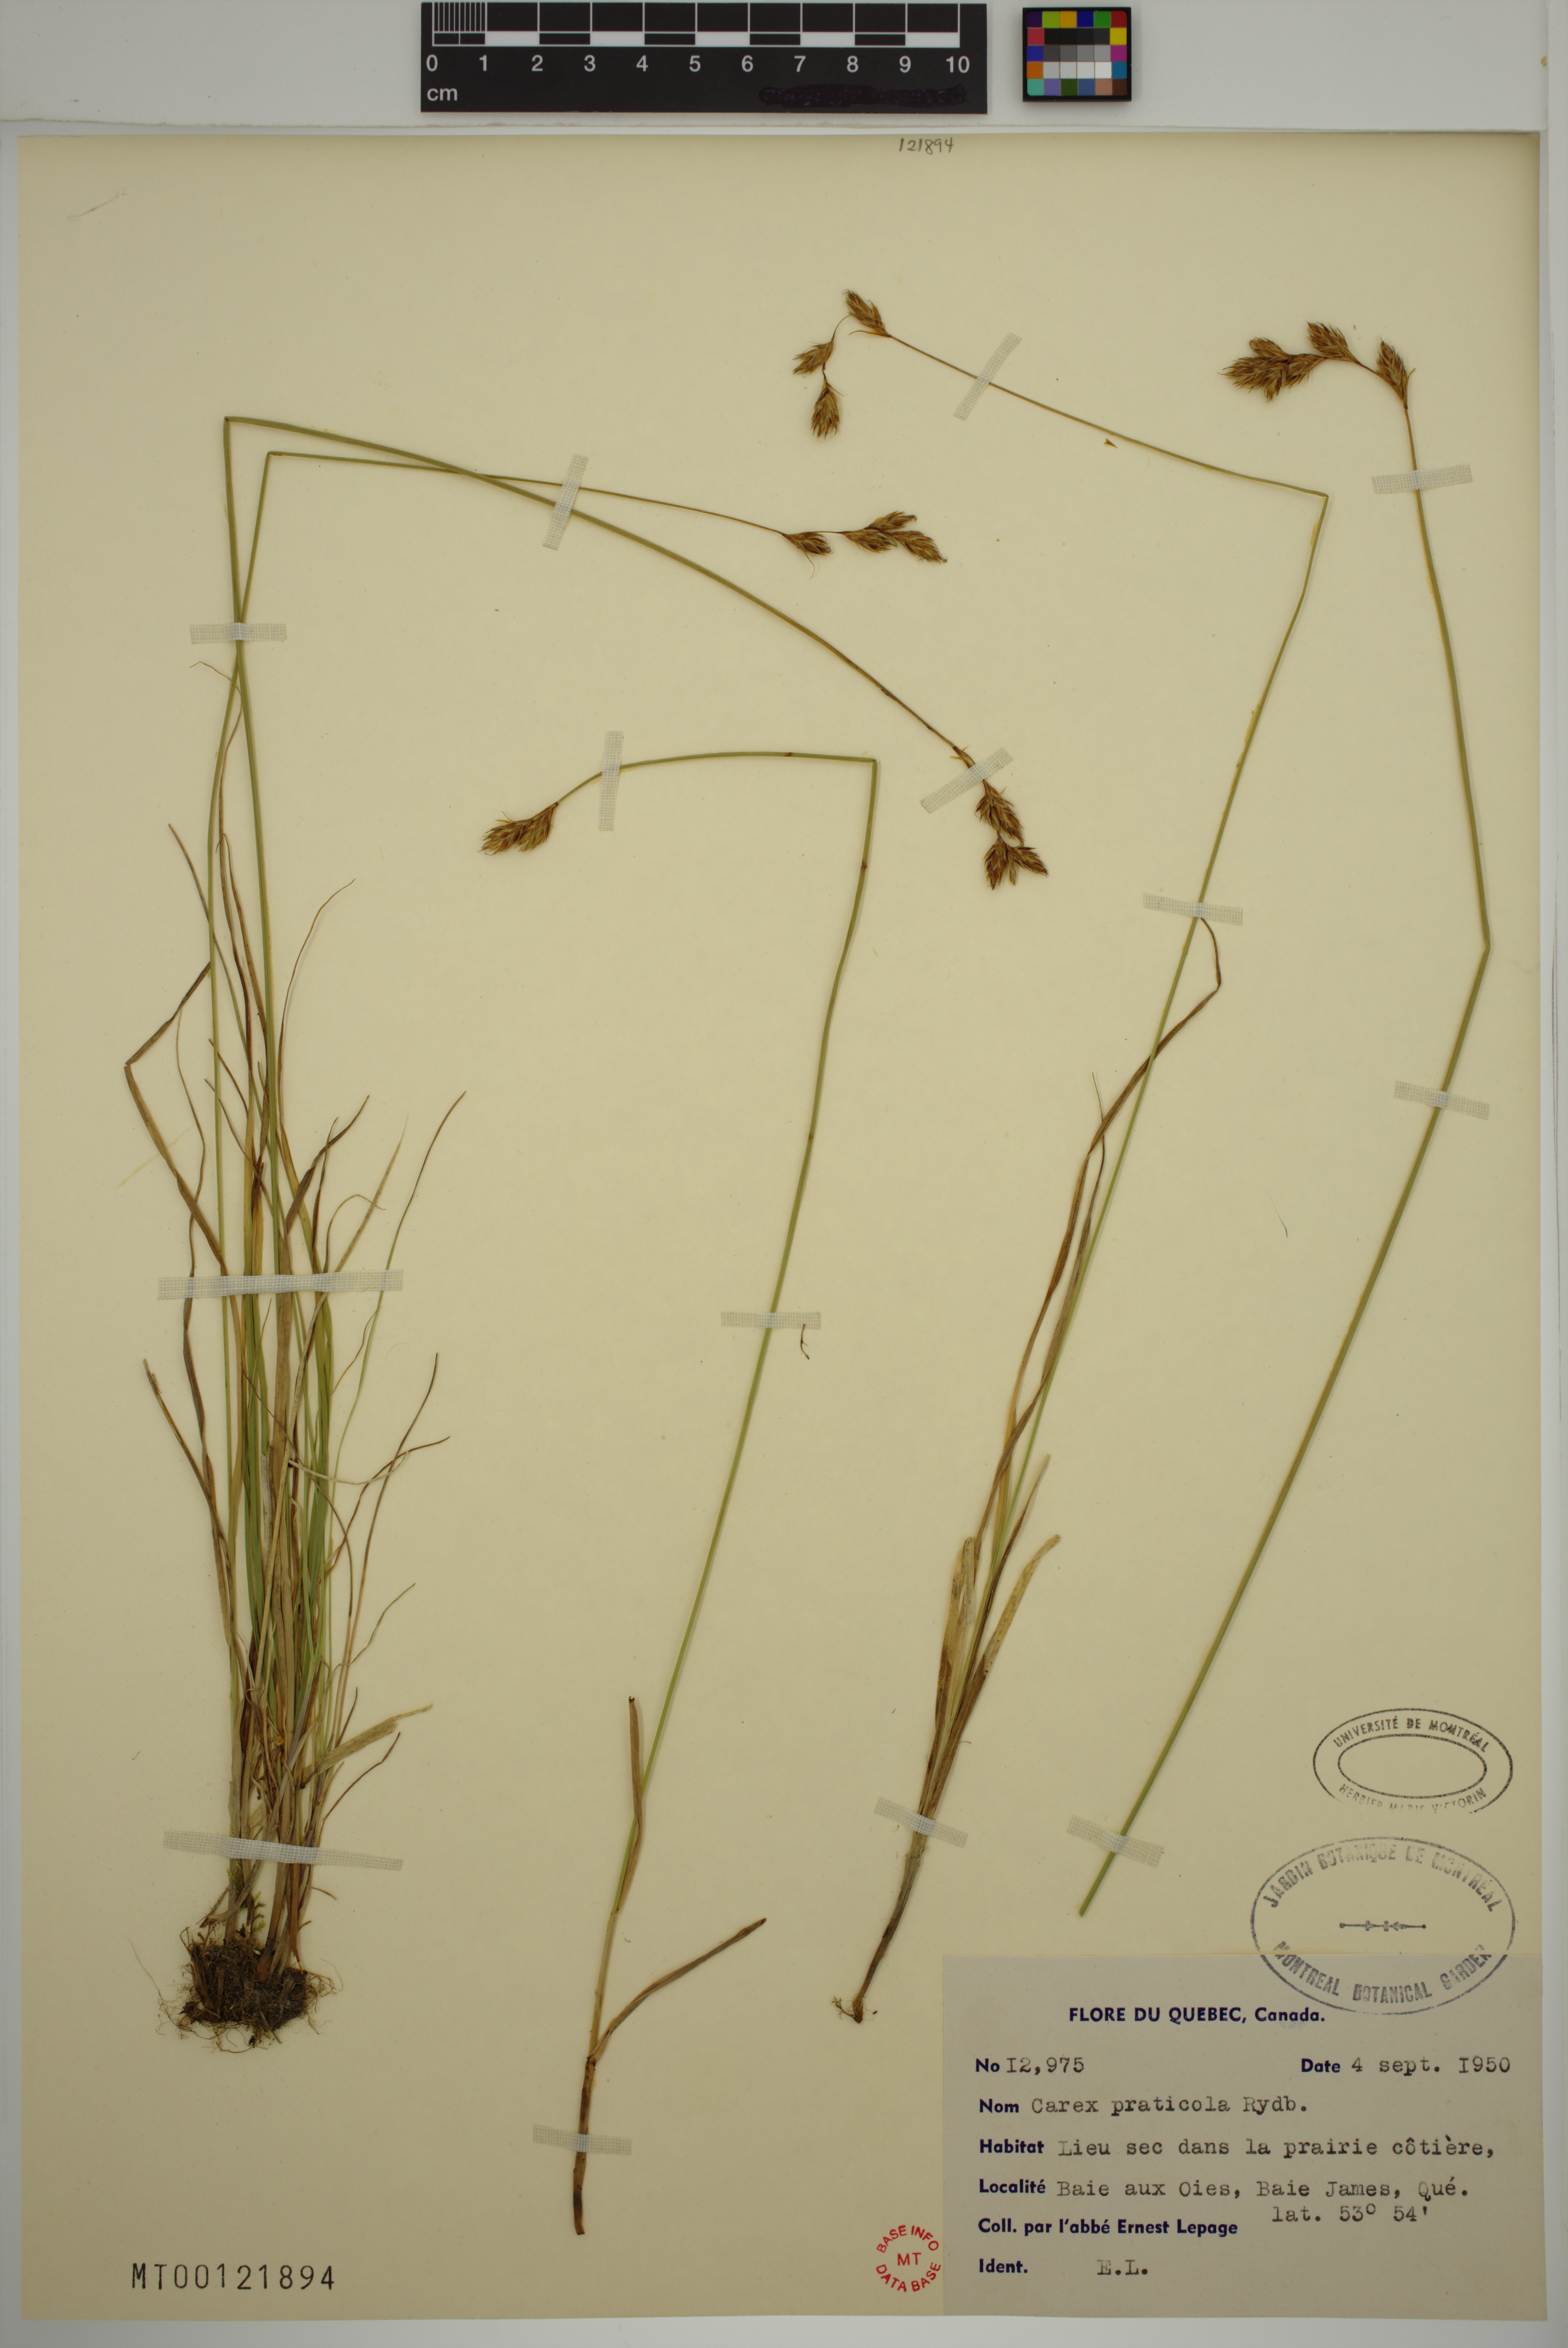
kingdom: Plantae
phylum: Tracheophyta
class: Liliopsida
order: Poales
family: Cyperaceae
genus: Carex
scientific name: Carex praticola
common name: Large-fruited oval sedge
